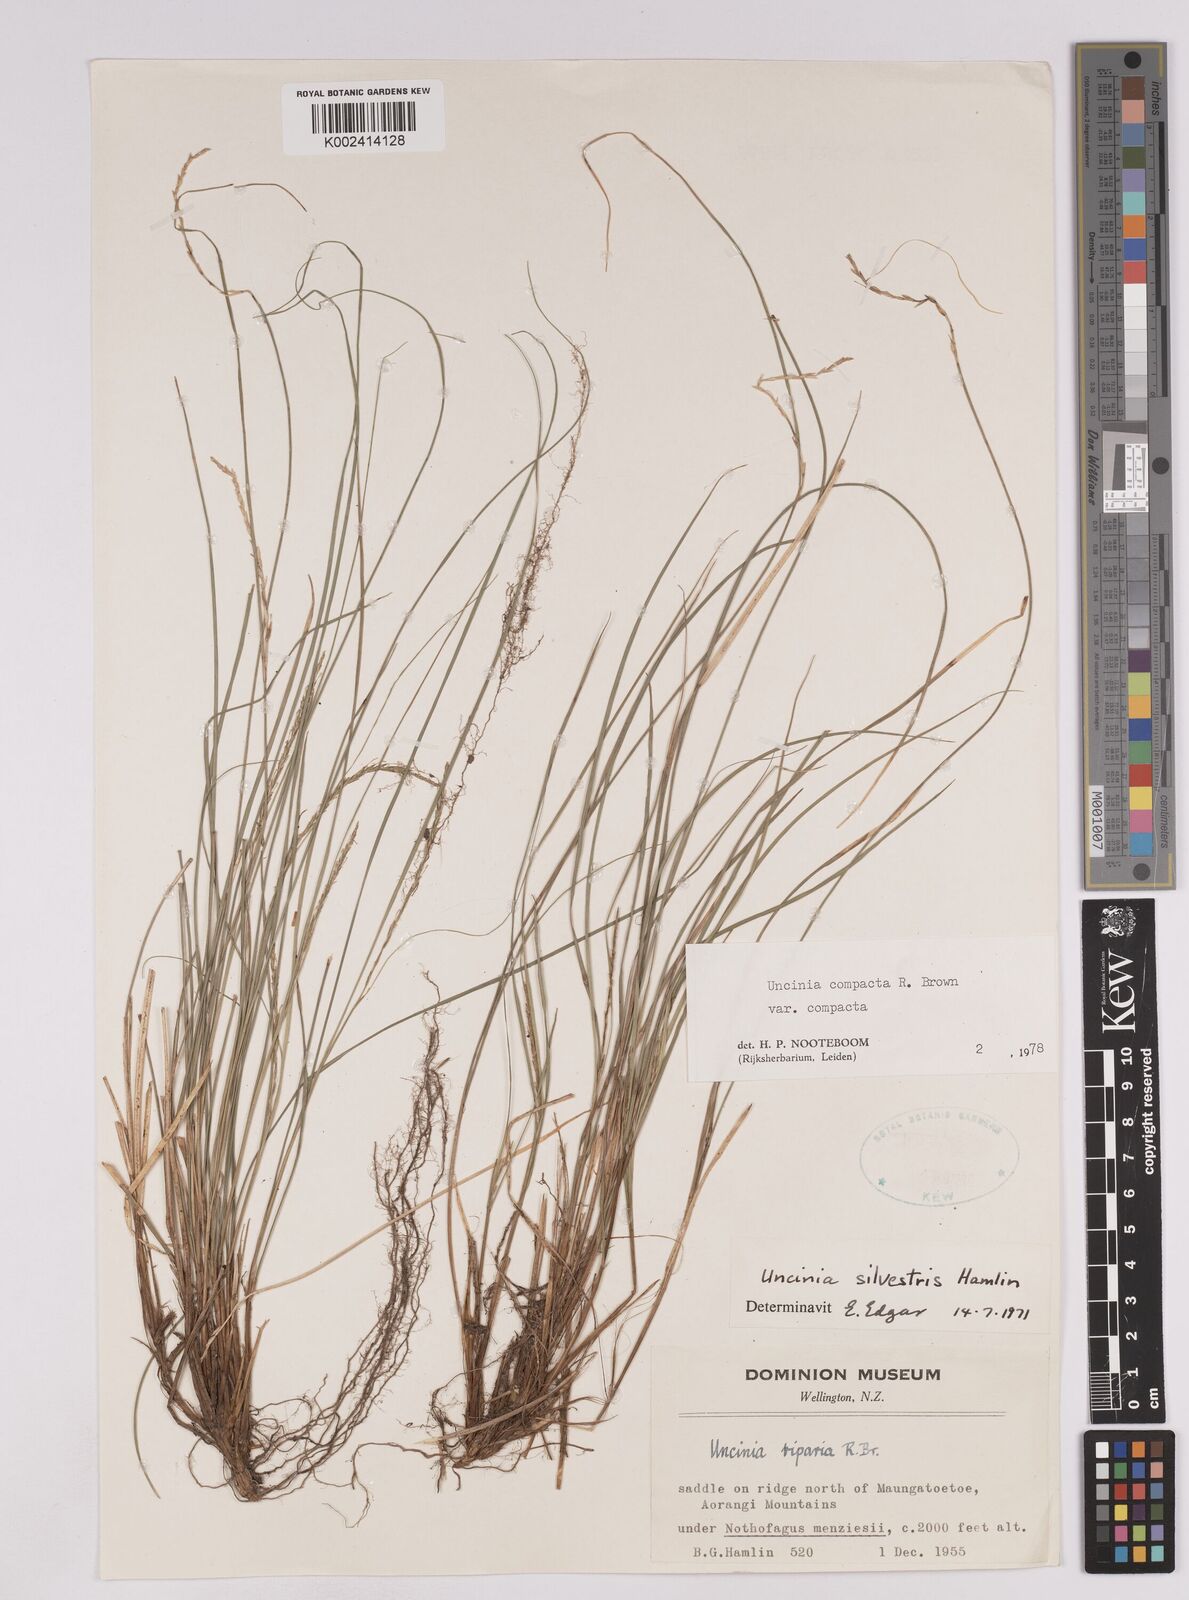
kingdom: Plantae
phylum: Tracheophyta
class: Liliopsida
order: Poales
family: Cyperaceae
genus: Carex
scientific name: Carex austrocompacta
